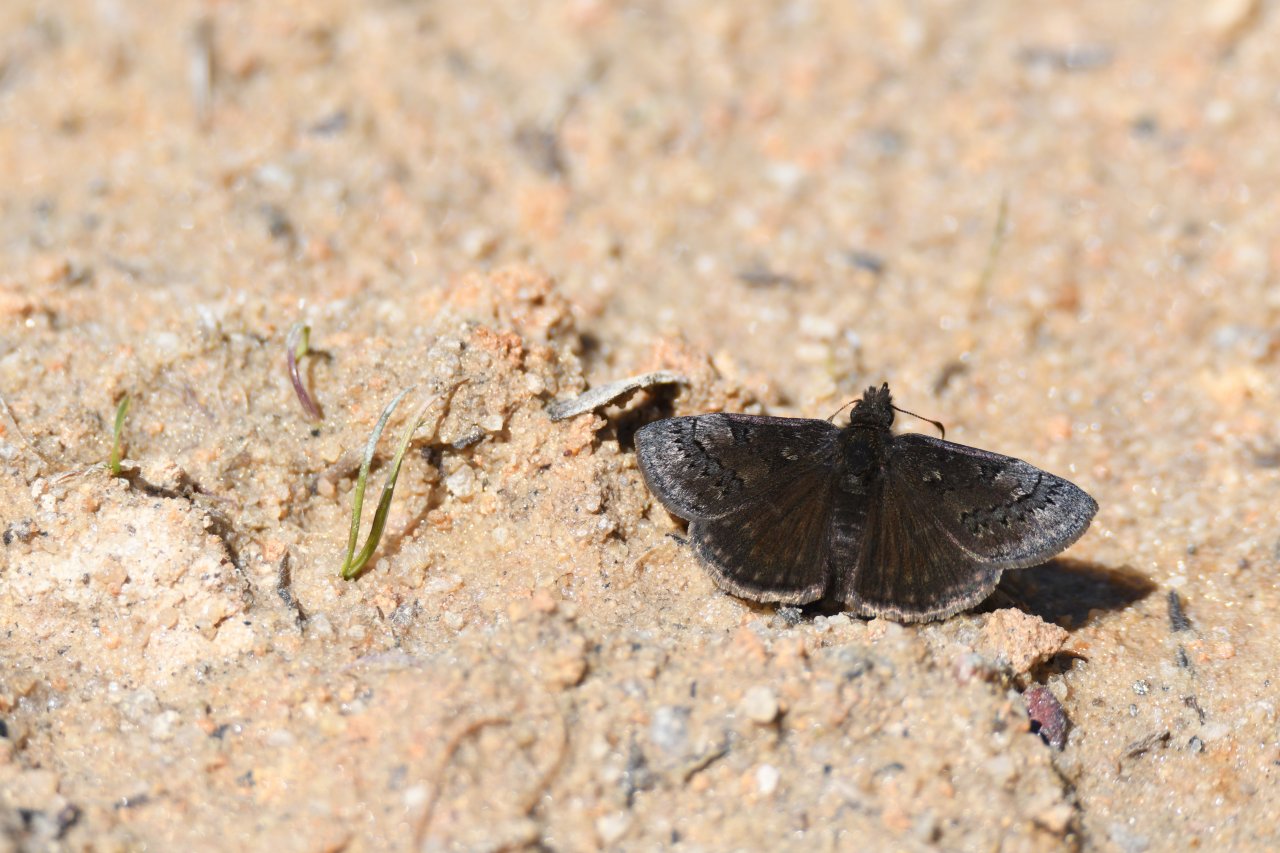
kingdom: Animalia
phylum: Arthropoda
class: Insecta
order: Lepidoptera
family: Hesperiidae
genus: Erynnis
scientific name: Erynnis brizo
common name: Sleepy Duskywing
